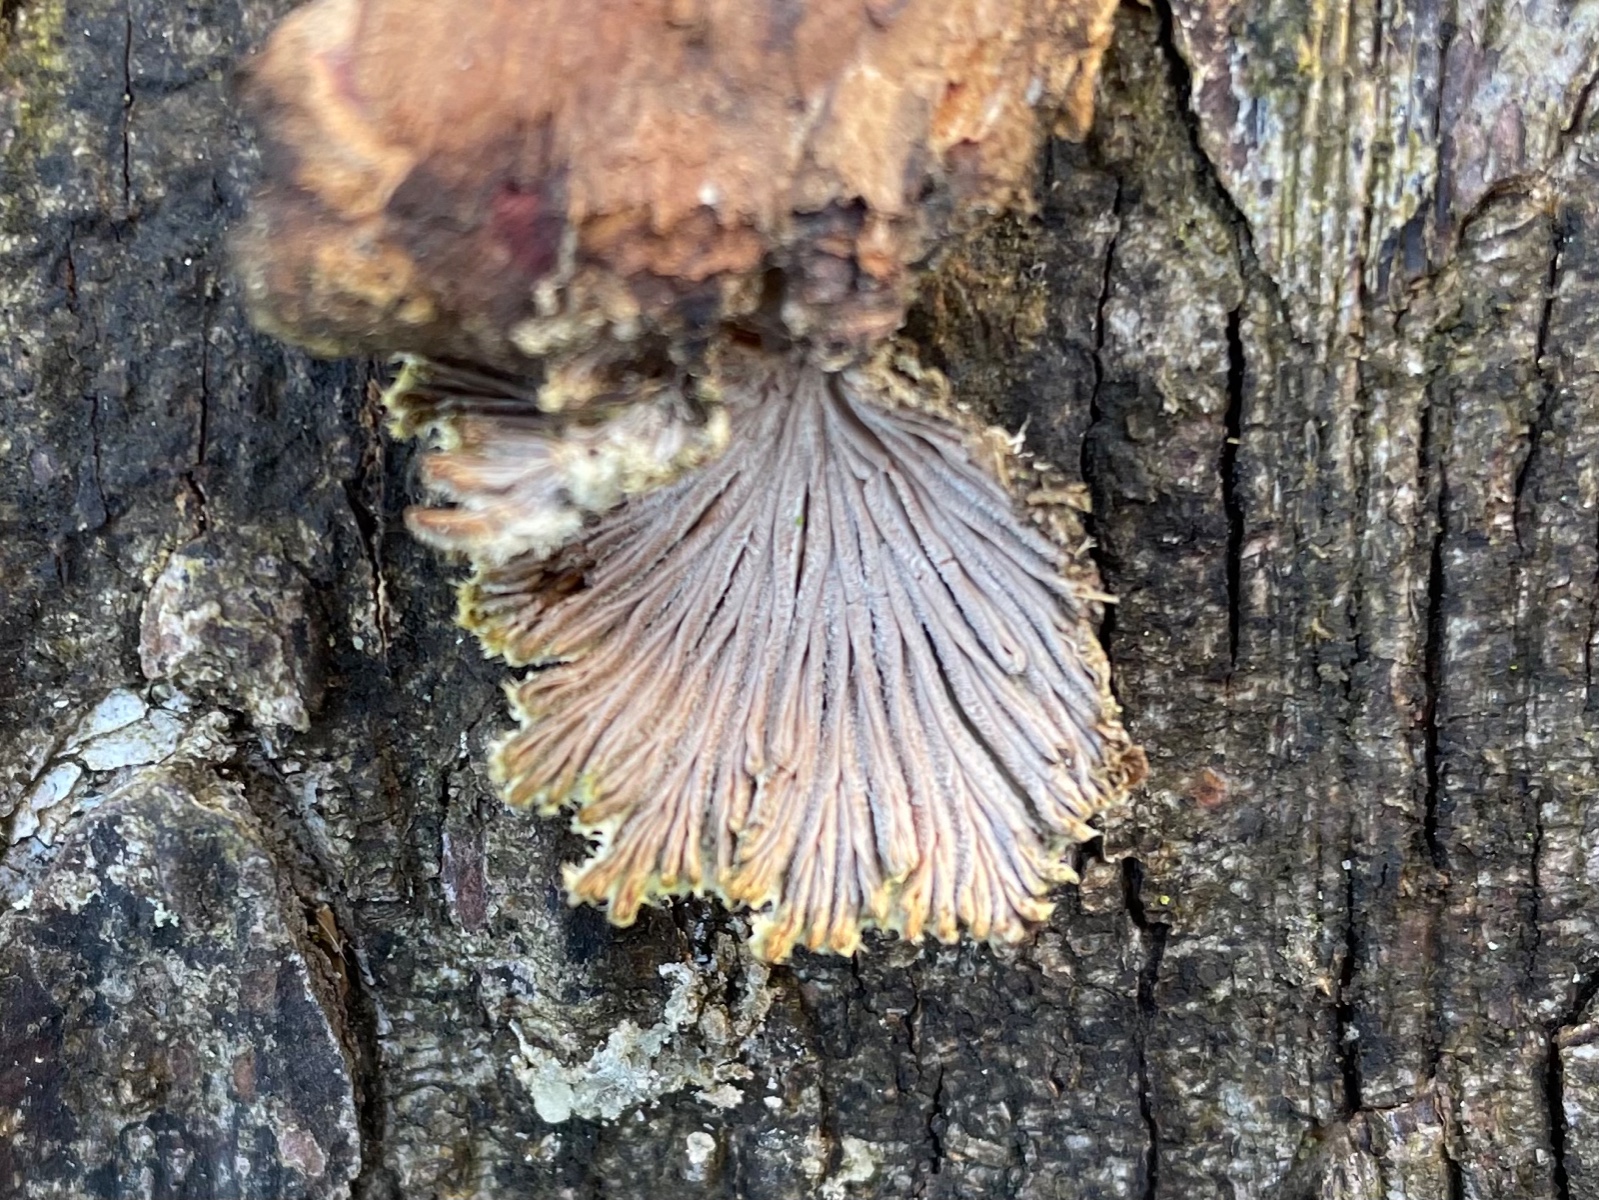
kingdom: Fungi
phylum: Basidiomycota
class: Agaricomycetes
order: Agaricales
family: Schizophyllaceae
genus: Schizophyllum
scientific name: Schizophyllum commune
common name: kløvblad
